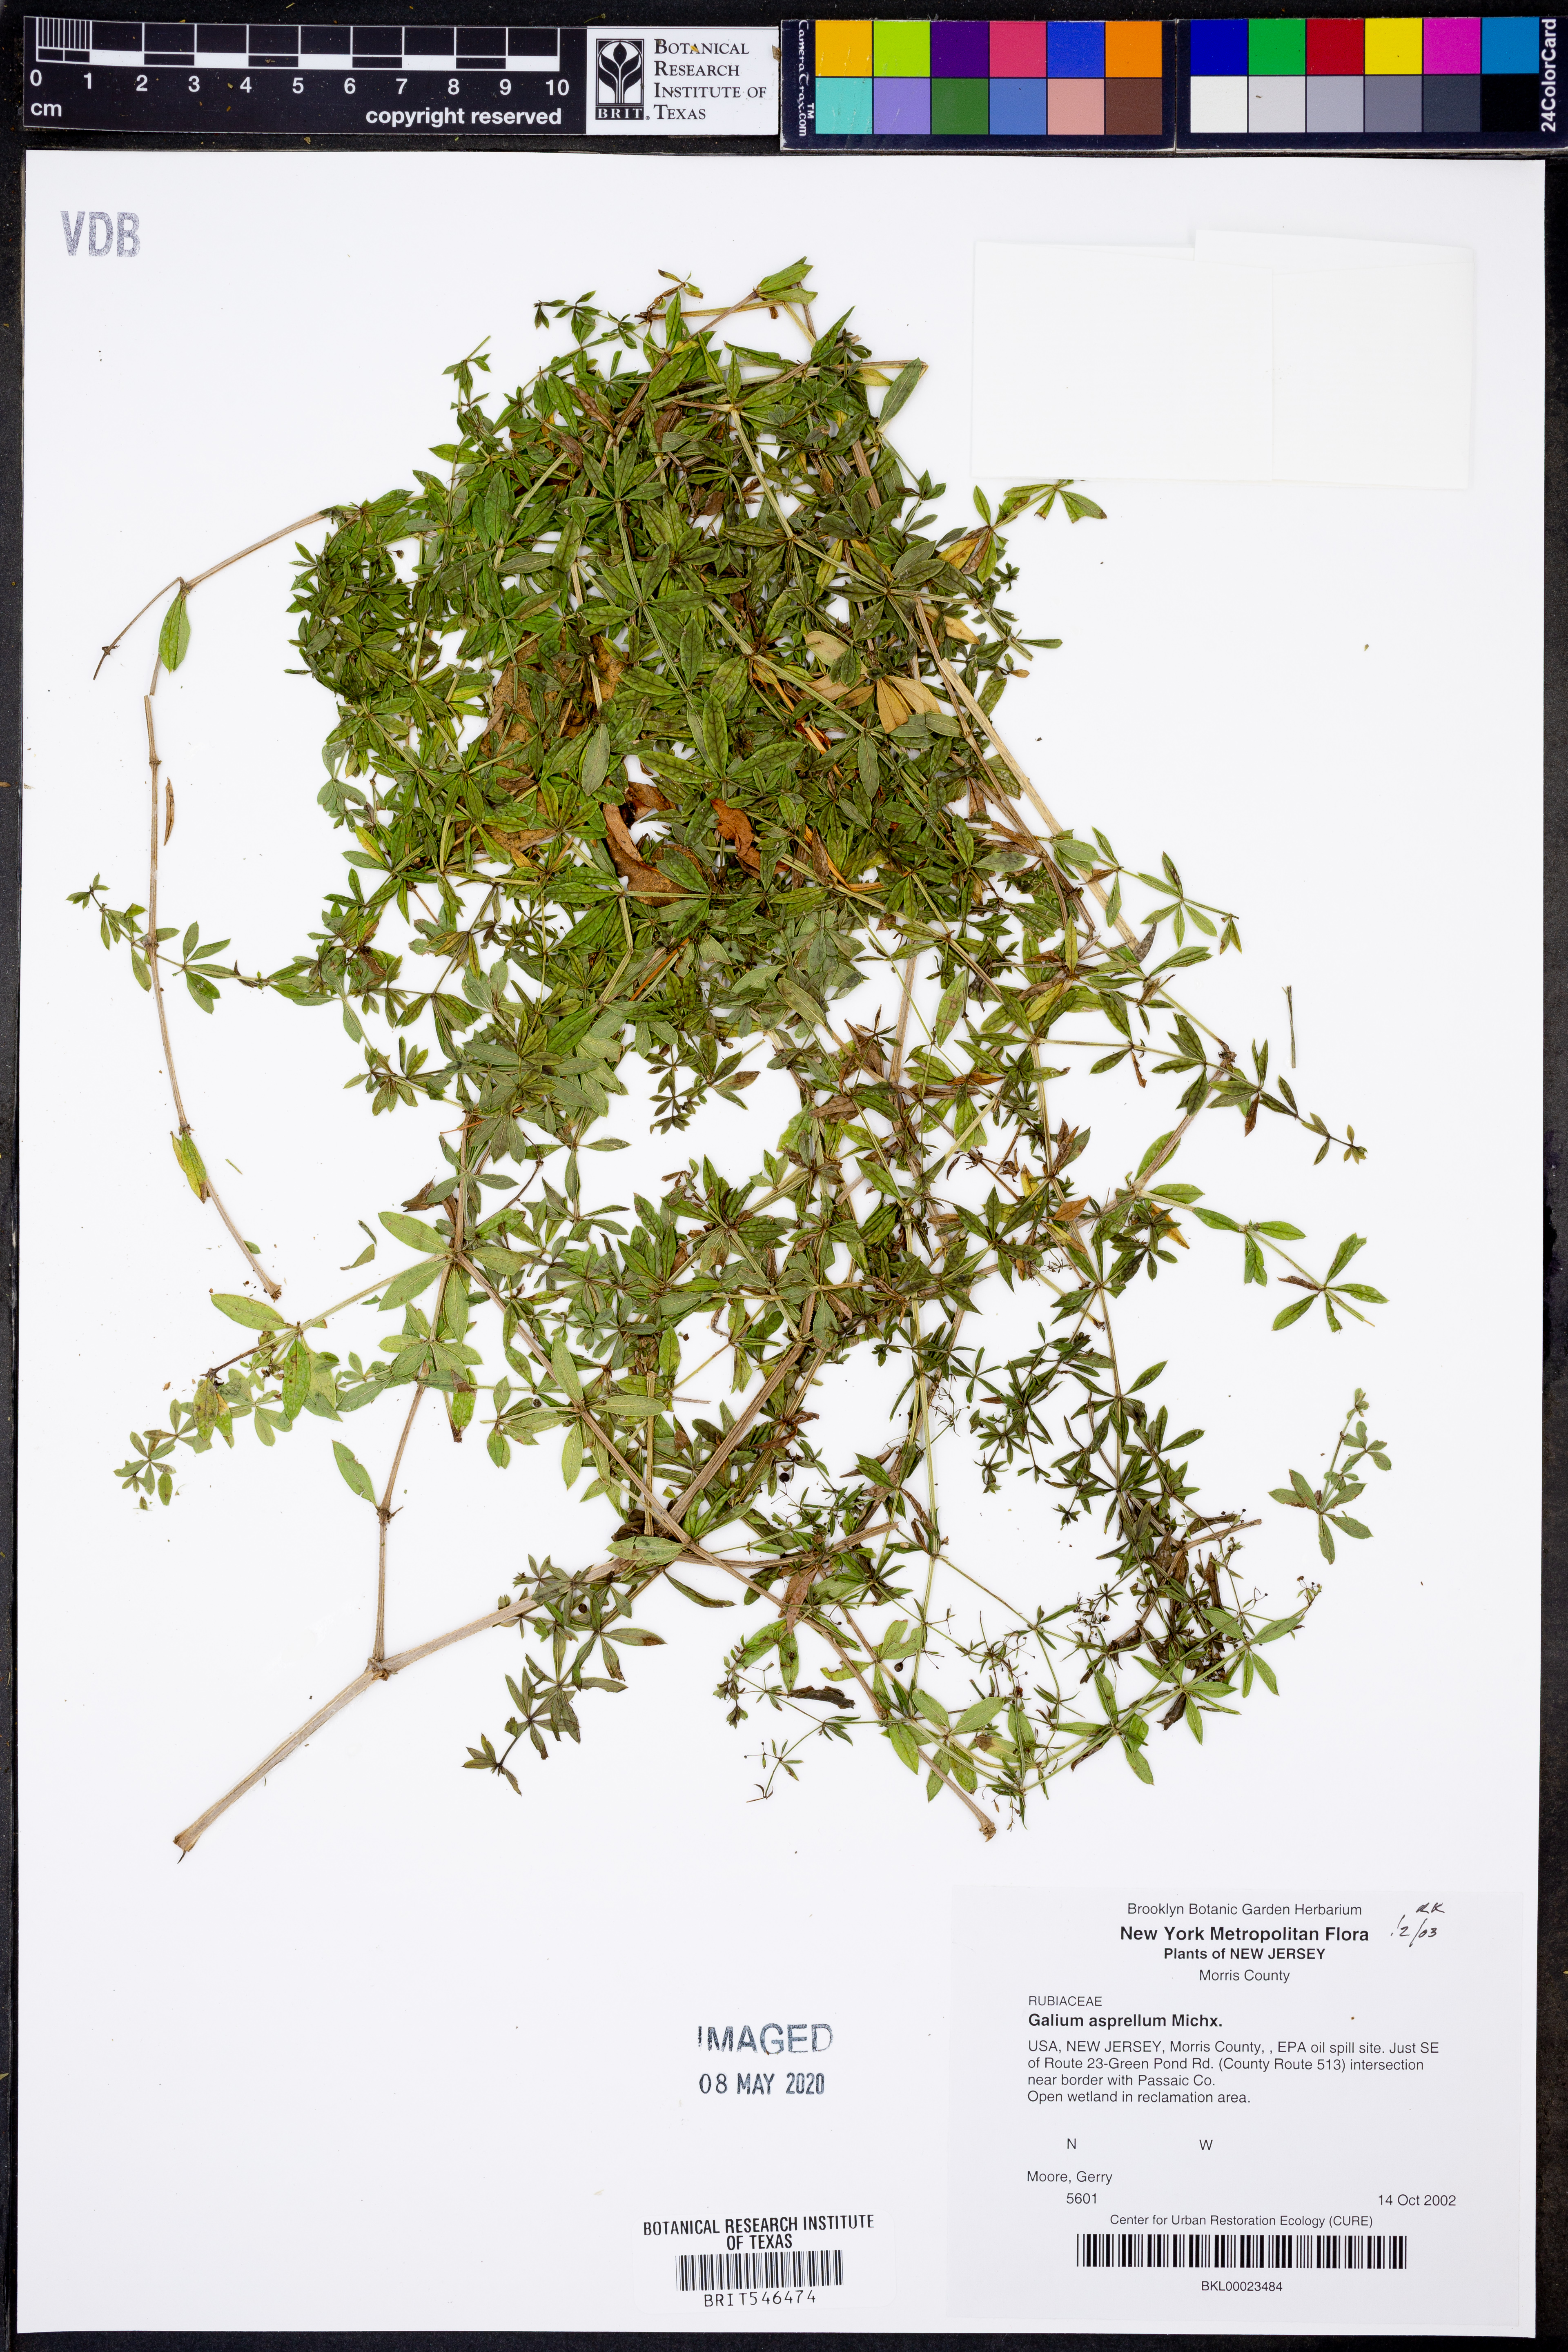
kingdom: Plantae
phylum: Tracheophyta
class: Magnoliopsida
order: Gentianales
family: Rubiaceae
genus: Galium
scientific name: Galium asprellum
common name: Rough bedstraw
